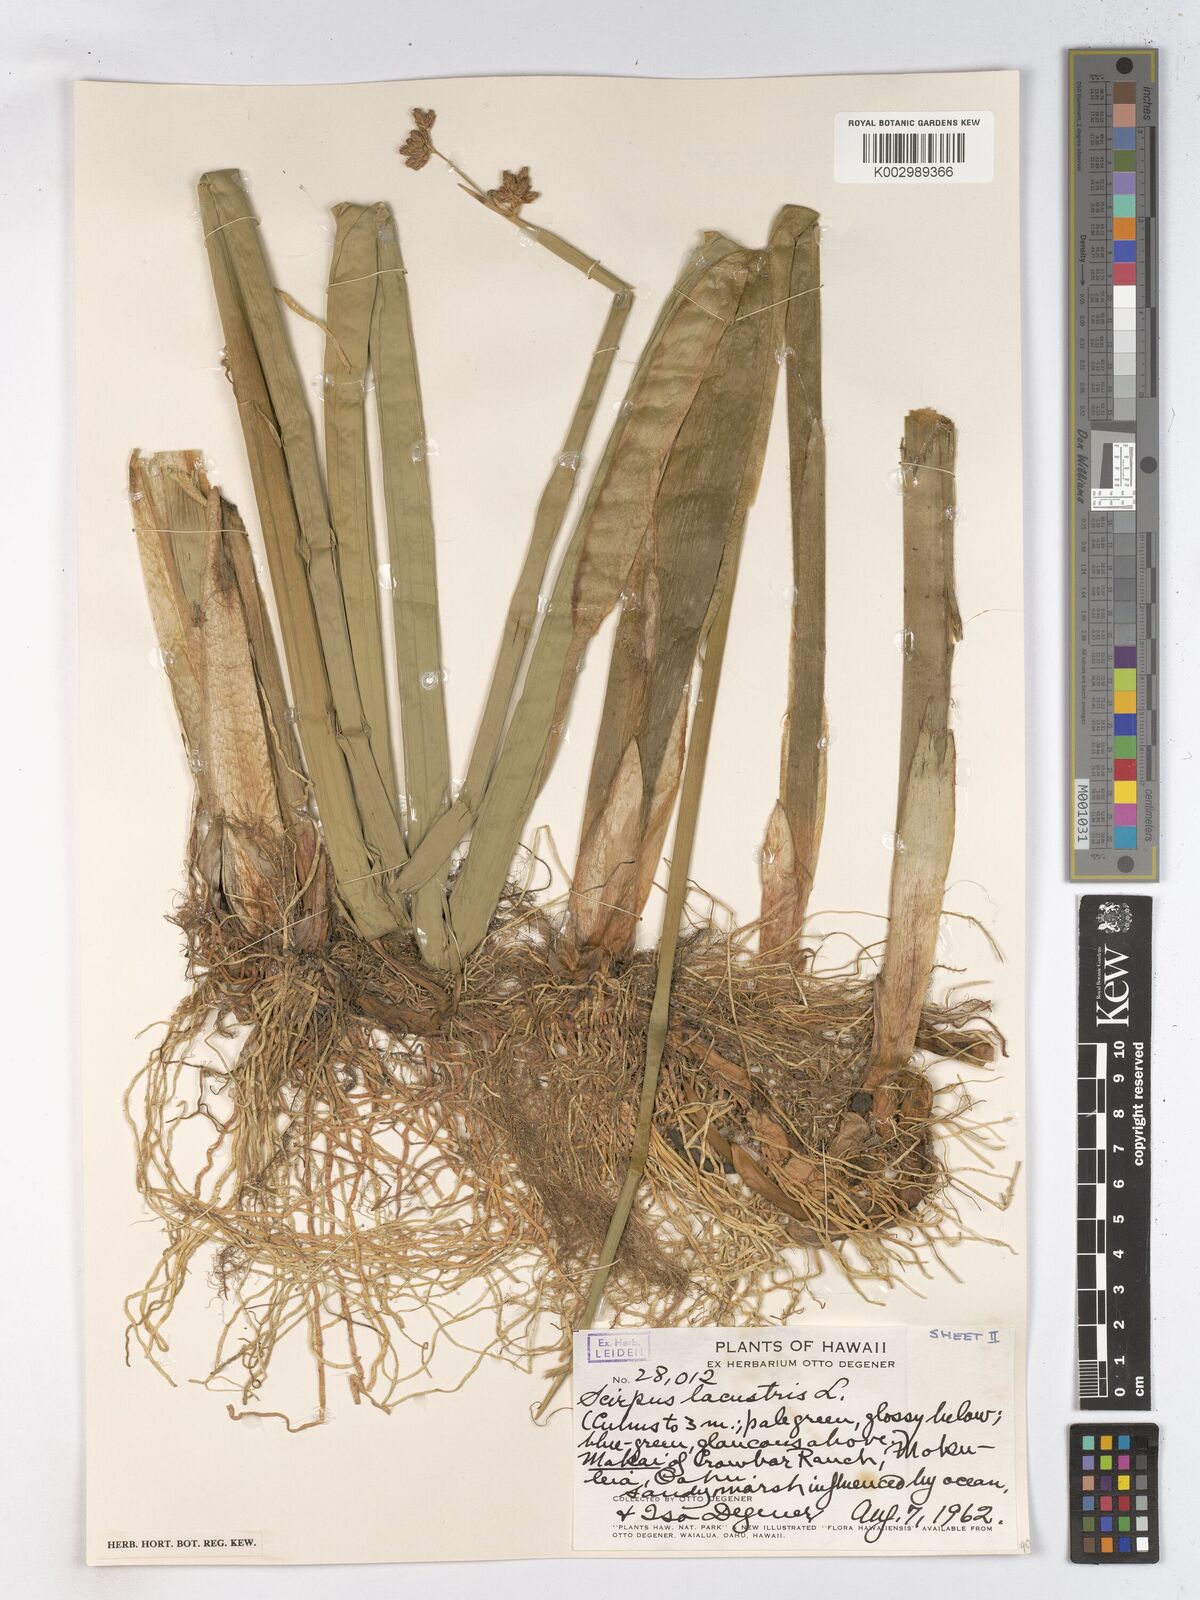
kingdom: Plantae
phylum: Tracheophyta
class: Liliopsida
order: Poales
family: Cyperaceae
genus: Schoenoplectus
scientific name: Schoenoplectus lacustris
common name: Common club-rush
